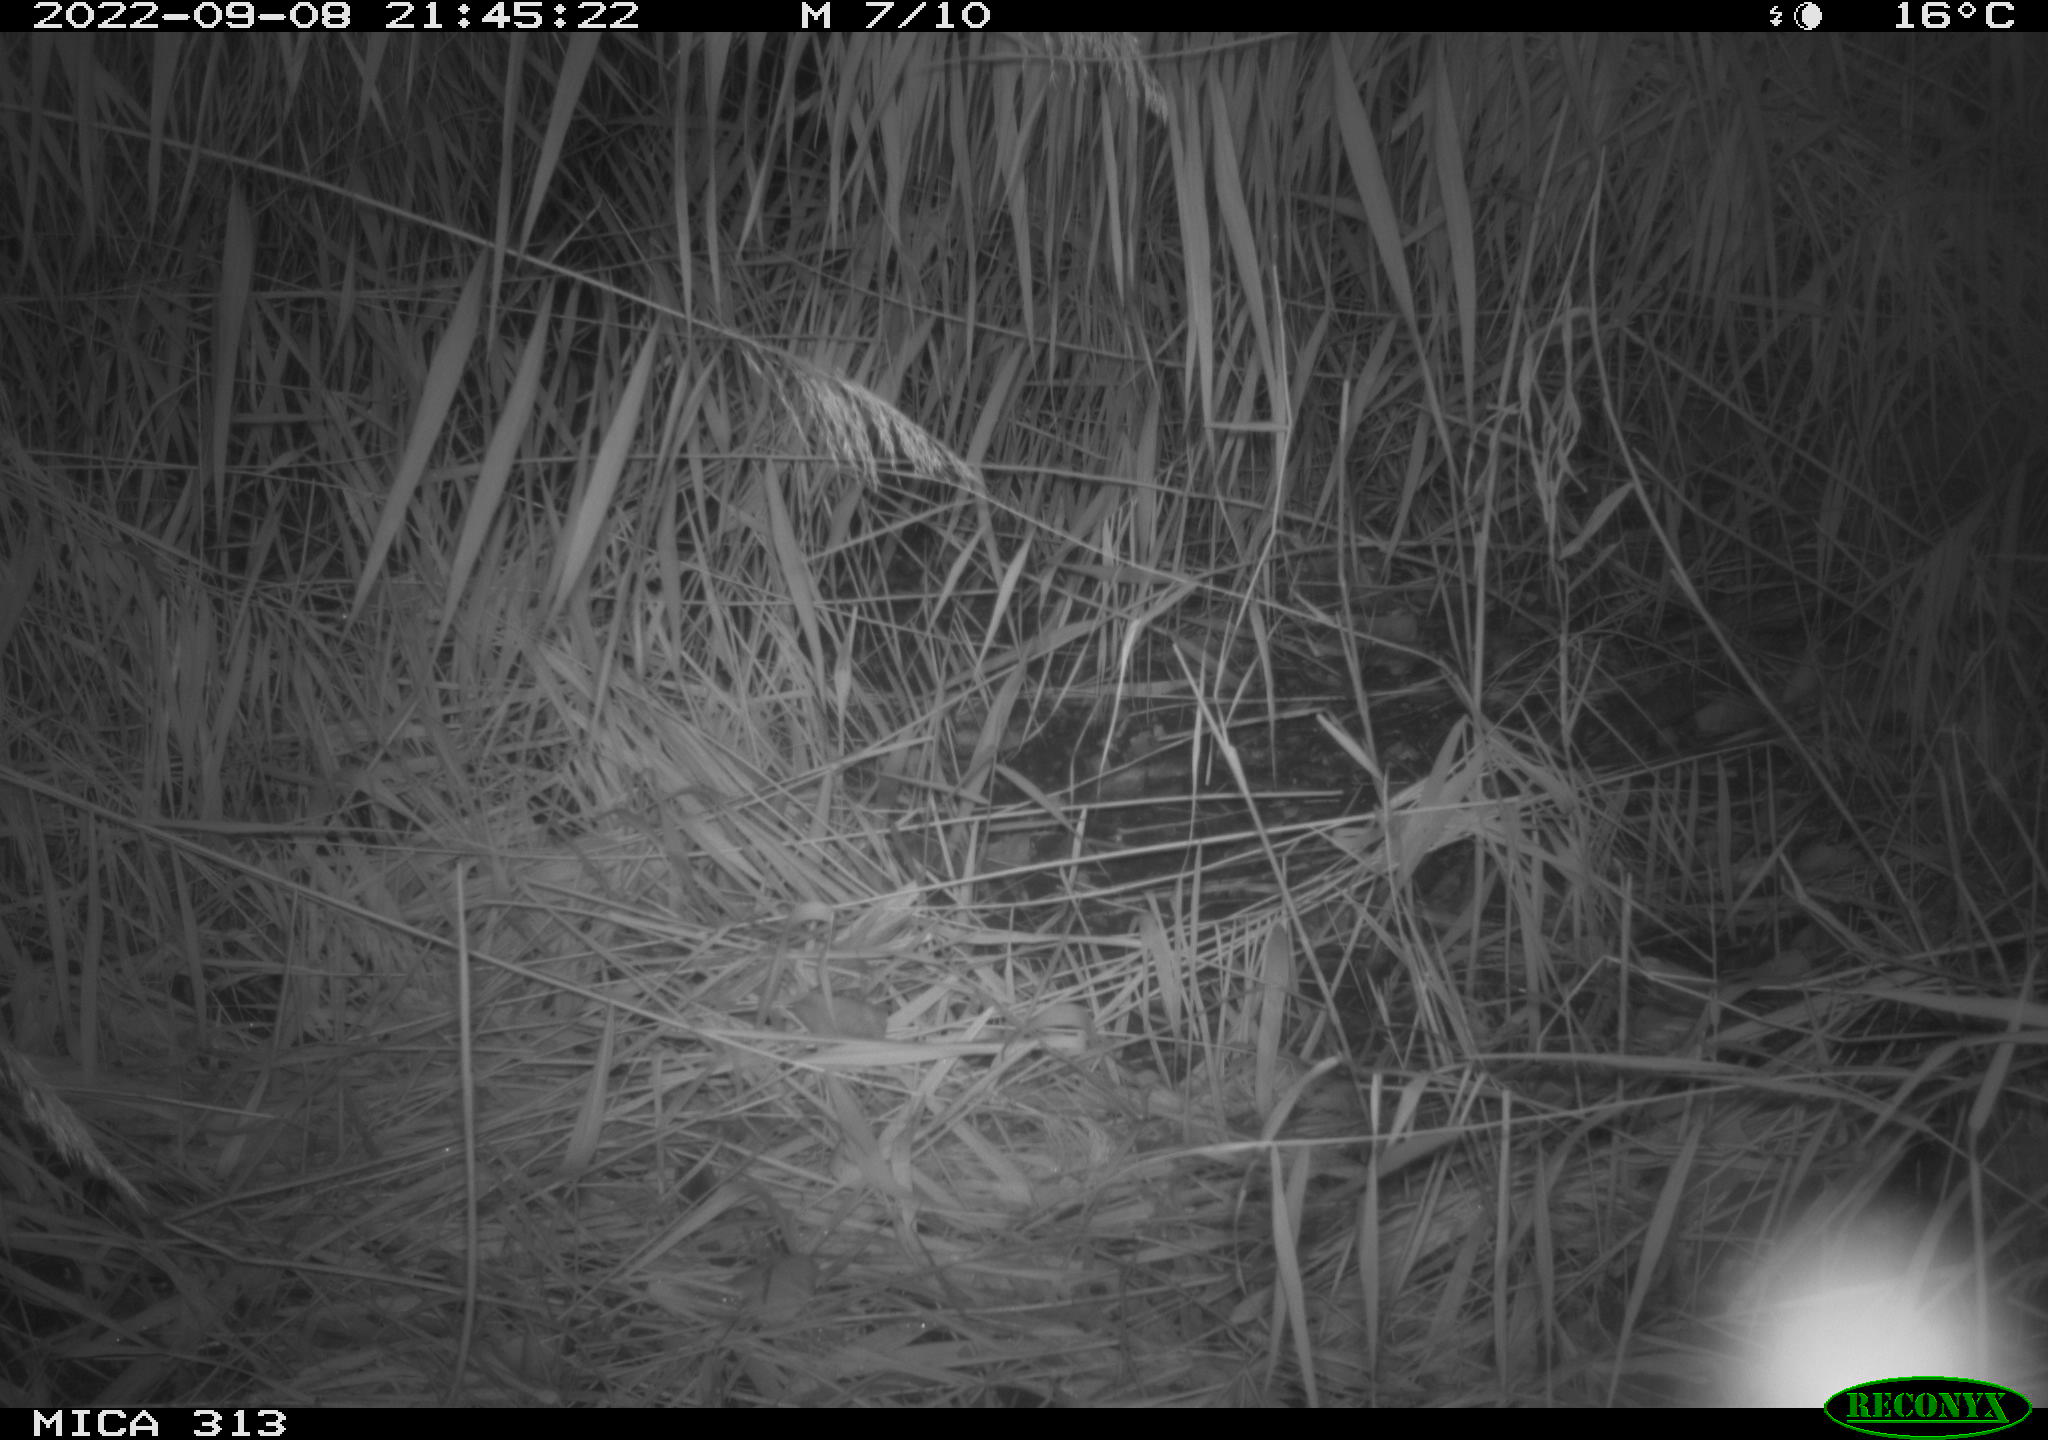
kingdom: Animalia
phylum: Chordata
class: Mammalia
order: Rodentia
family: Muridae
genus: Apodemus
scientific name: Apodemus sylvaticus
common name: Wood mouse
